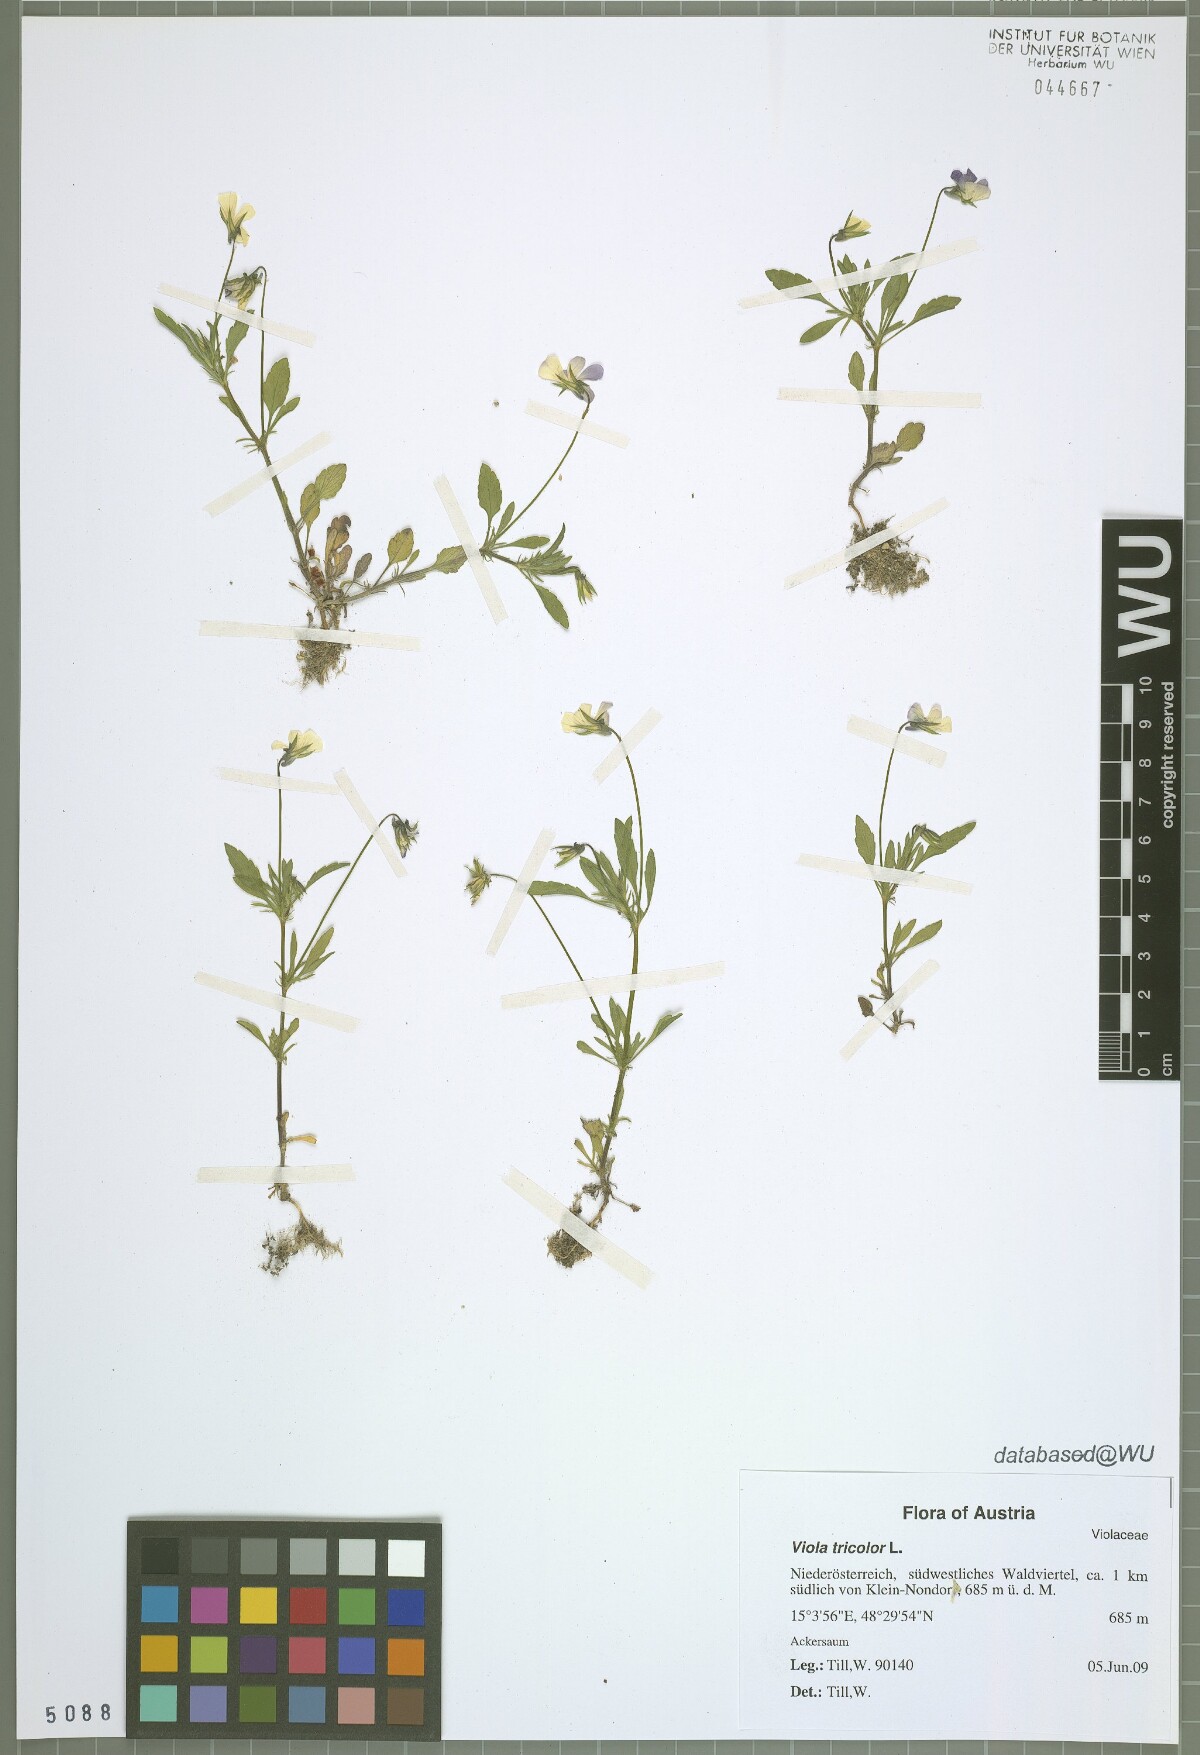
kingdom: Plantae
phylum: Tracheophyta
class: Magnoliopsida
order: Malpighiales
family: Violaceae
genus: Viola
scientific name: Viola tricolor
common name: Pansy
